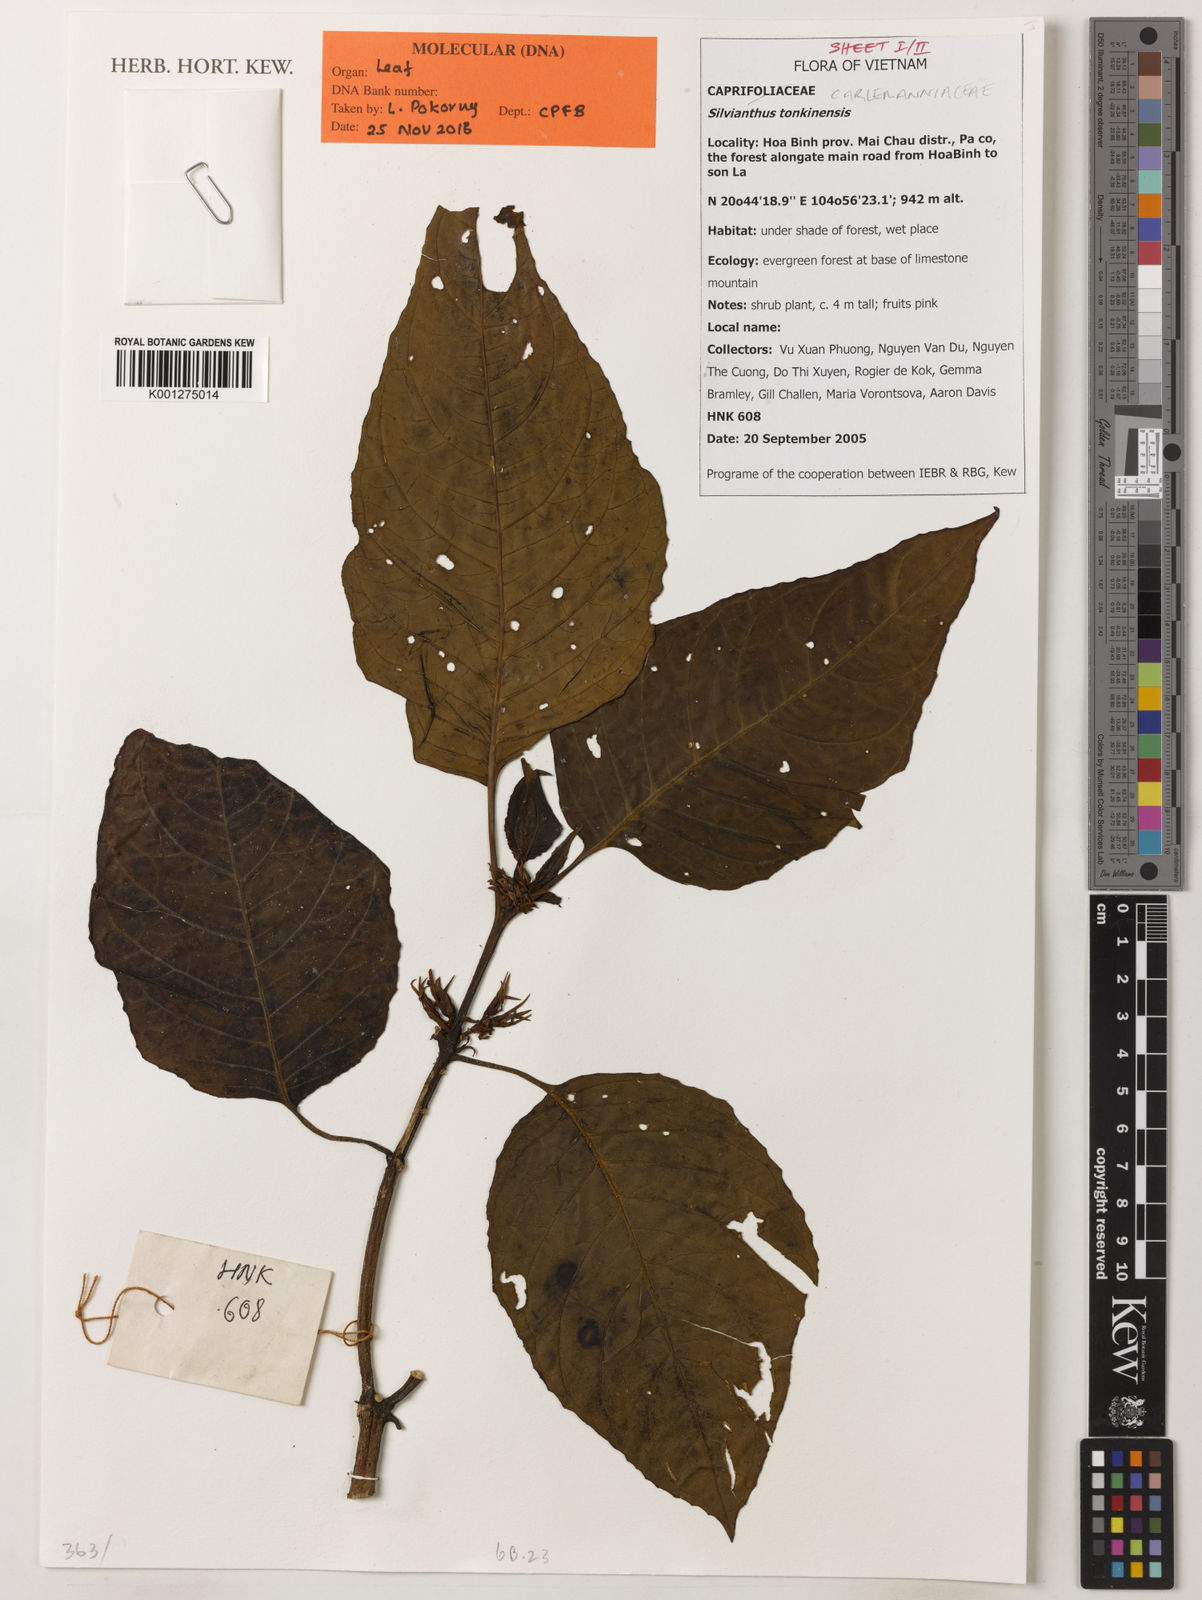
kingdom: Plantae
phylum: Tracheophyta
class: Magnoliopsida
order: Lamiales
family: Carlemanniaceae
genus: Silvianthus
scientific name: Silvianthus tonkinensis
